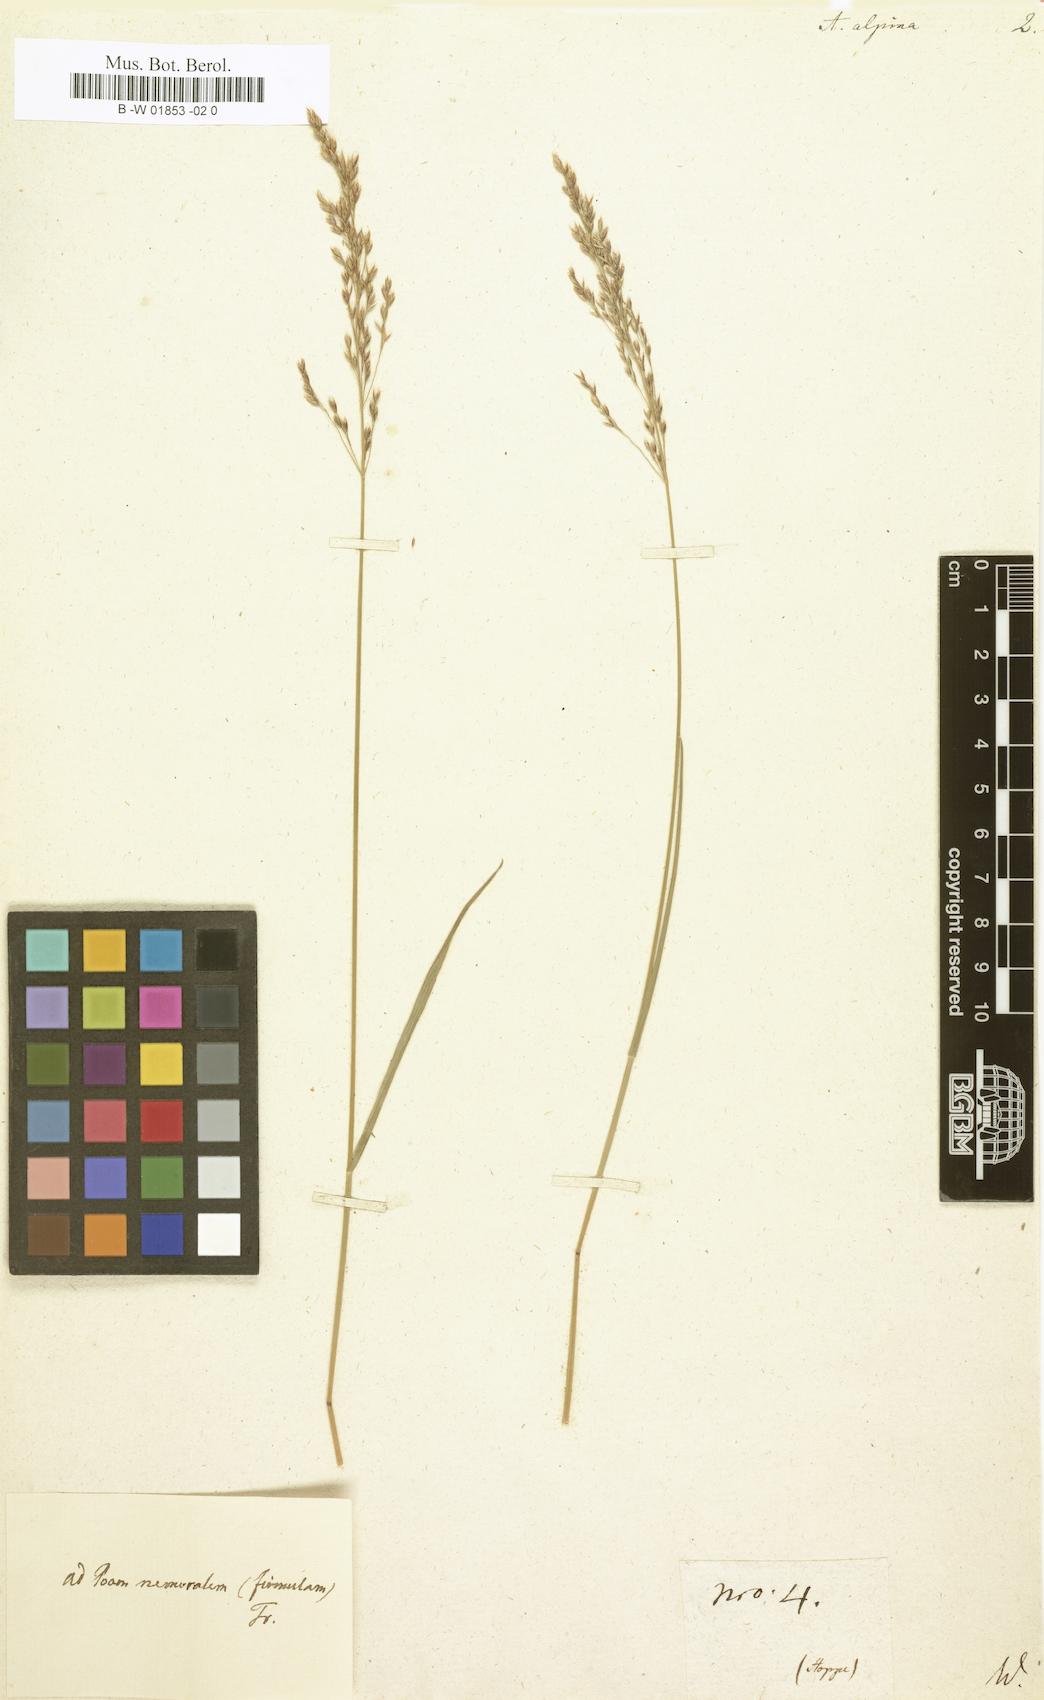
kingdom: Plantae
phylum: Tracheophyta
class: Liliopsida
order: Poales
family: Poaceae
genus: Deschampsia
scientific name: Deschampsia cespitosa
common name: Tufted hair-grass
